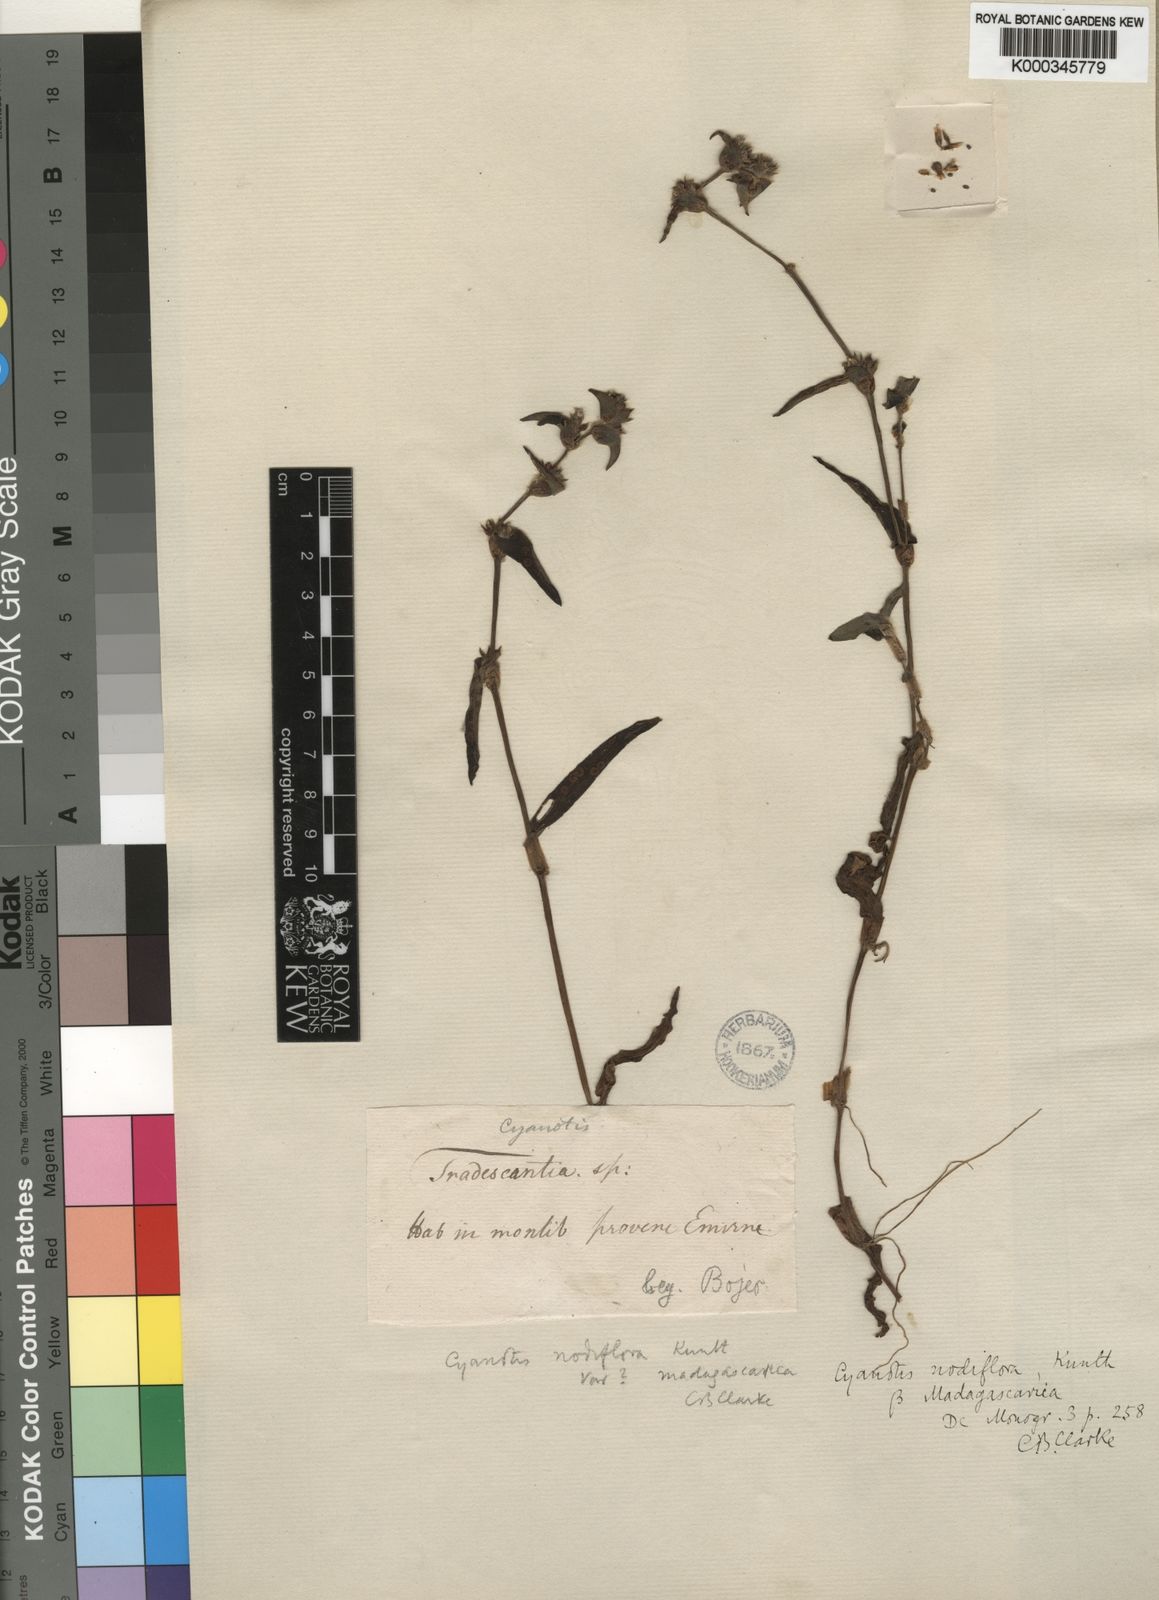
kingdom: Plantae
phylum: Tracheophyta
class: Liliopsida
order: Commelinales
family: Commelinaceae
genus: Cyanotis
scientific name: Cyanotis speciosa
